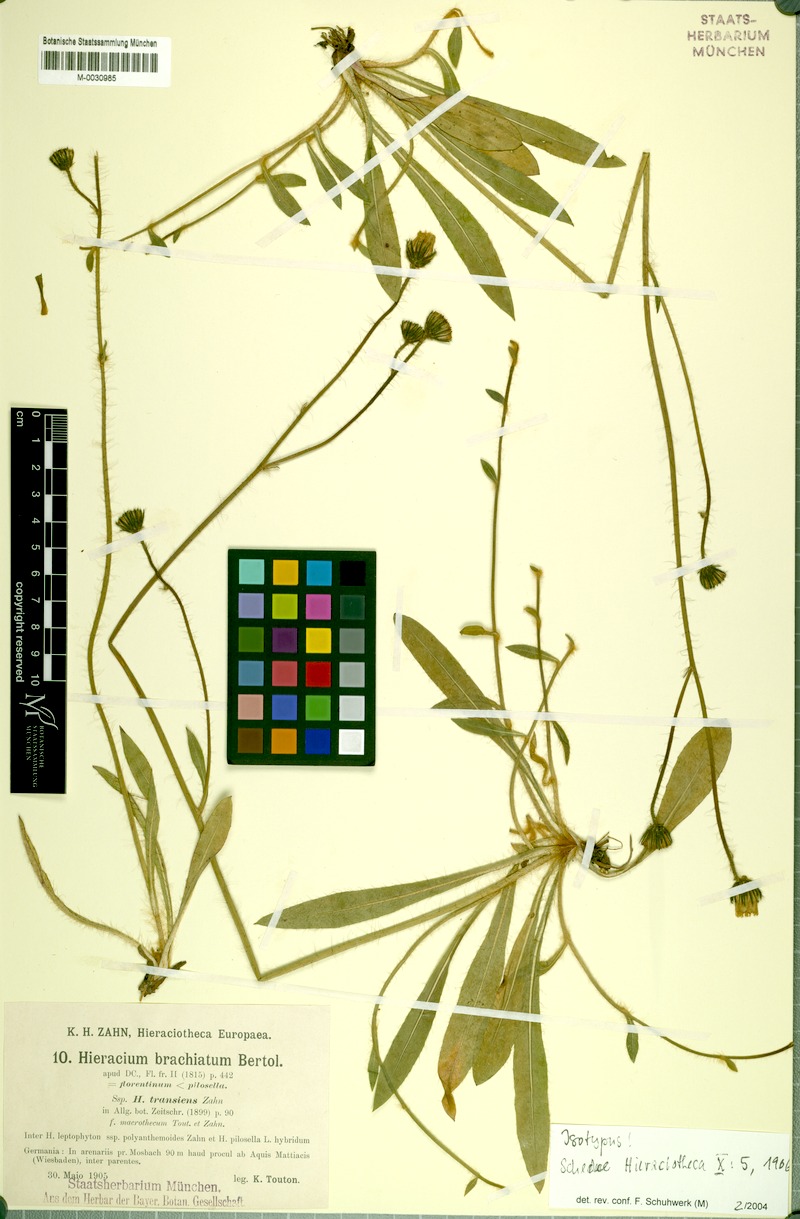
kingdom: Plantae
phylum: Tracheophyta
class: Magnoliopsida
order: Asterales
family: Asteraceae
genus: Pilosella
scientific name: Pilosella acutifolia
